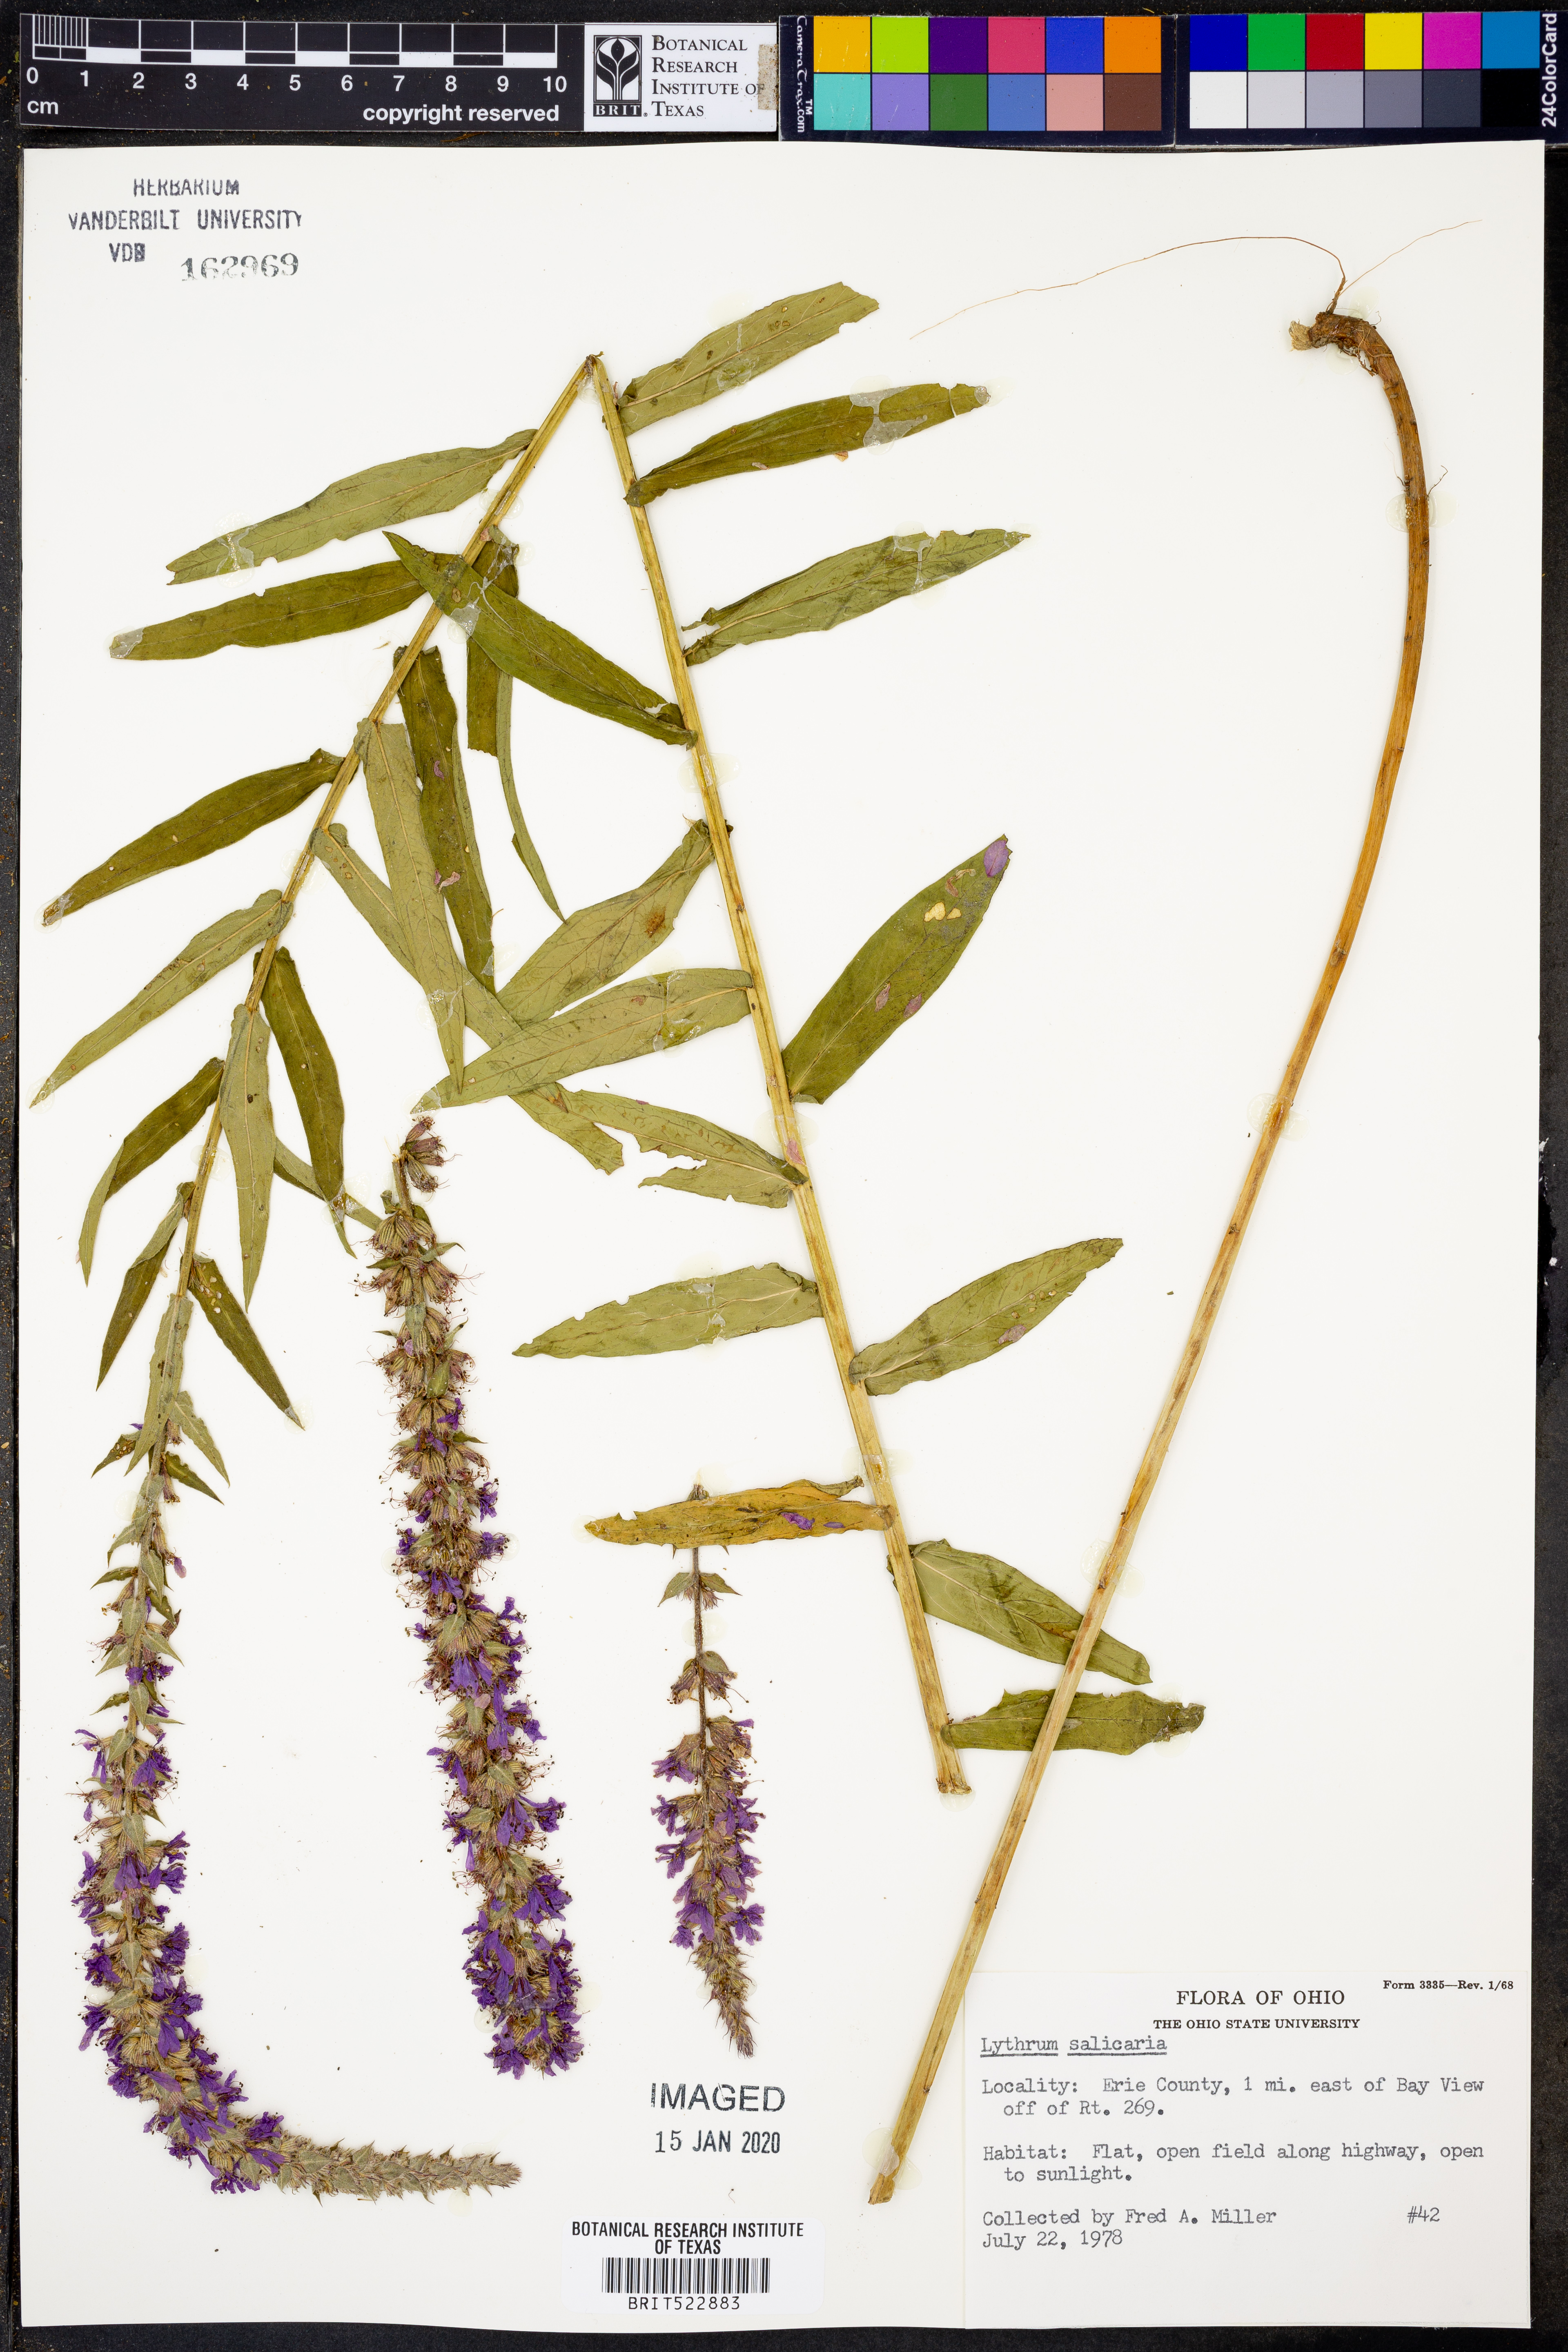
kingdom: Plantae
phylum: Tracheophyta
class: Magnoliopsida
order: Myrtales
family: Lythraceae
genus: Lythrum
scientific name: Lythrum salicaria
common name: Purple loosestrife
